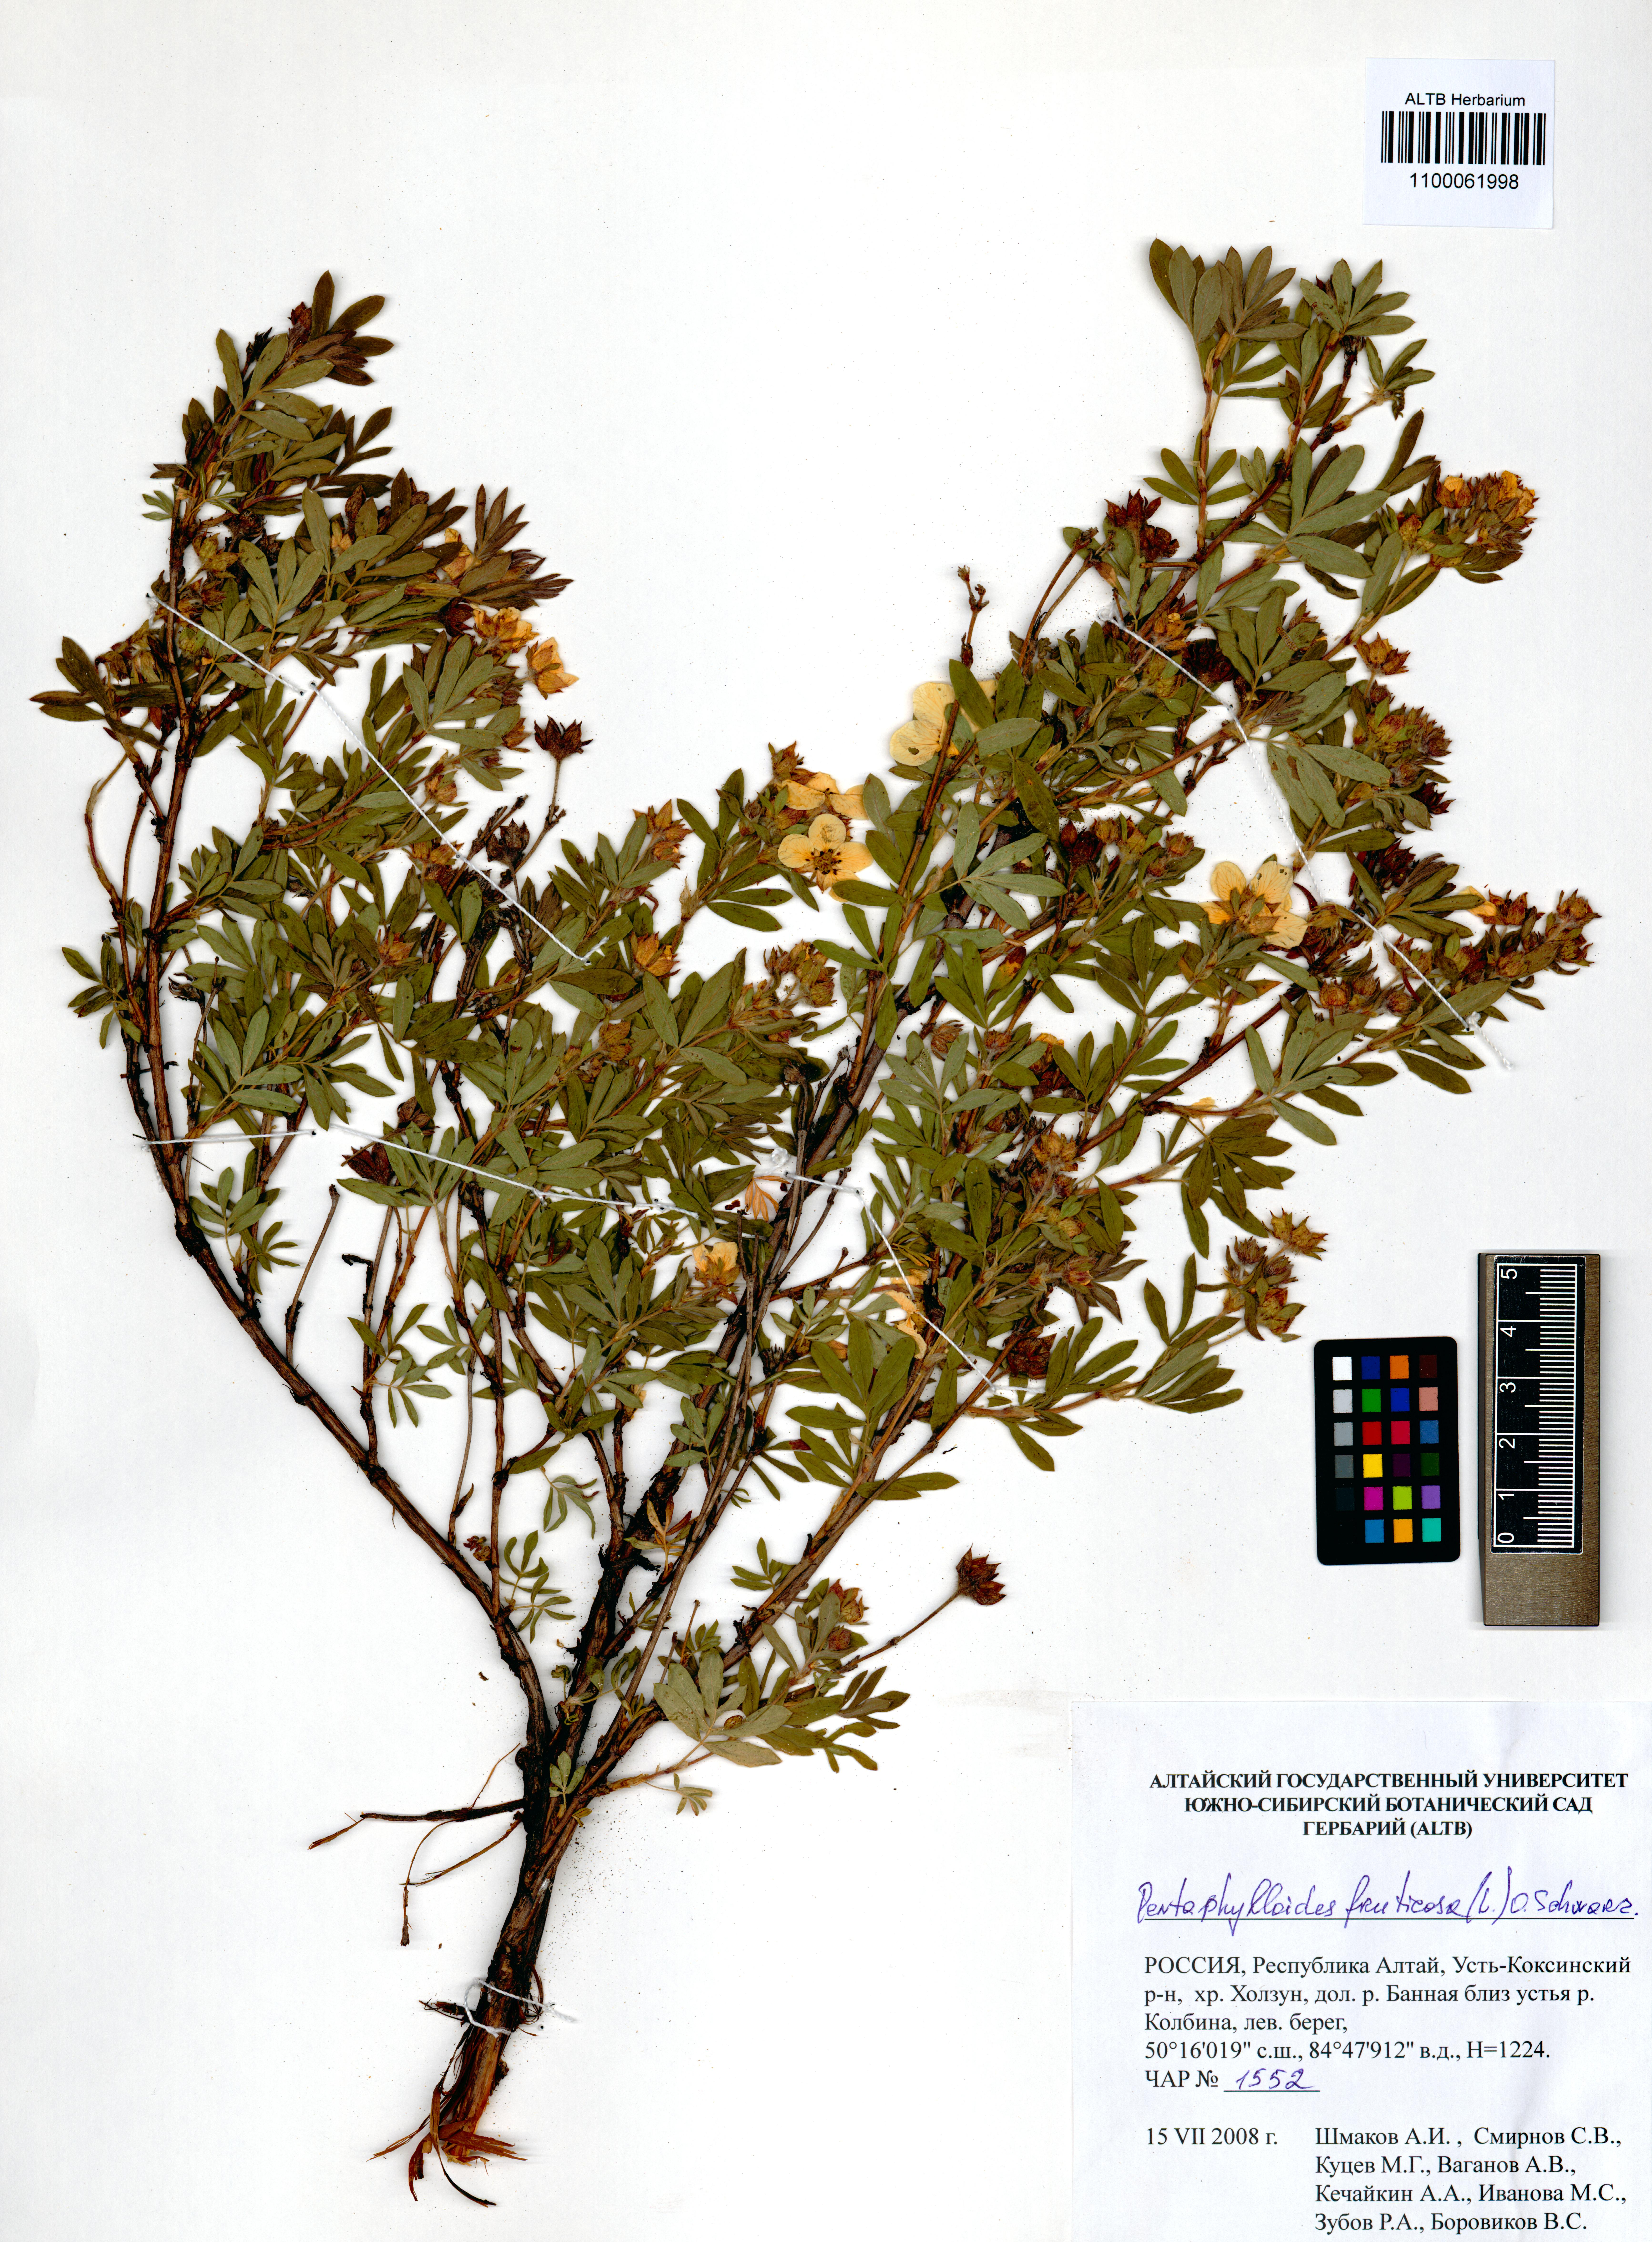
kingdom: Plantae
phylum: Tracheophyta
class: Magnoliopsida
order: Rosales
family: Rosaceae
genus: Dasiphora
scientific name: Dasiphora fruticosa
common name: Shrubby cinquefoil
